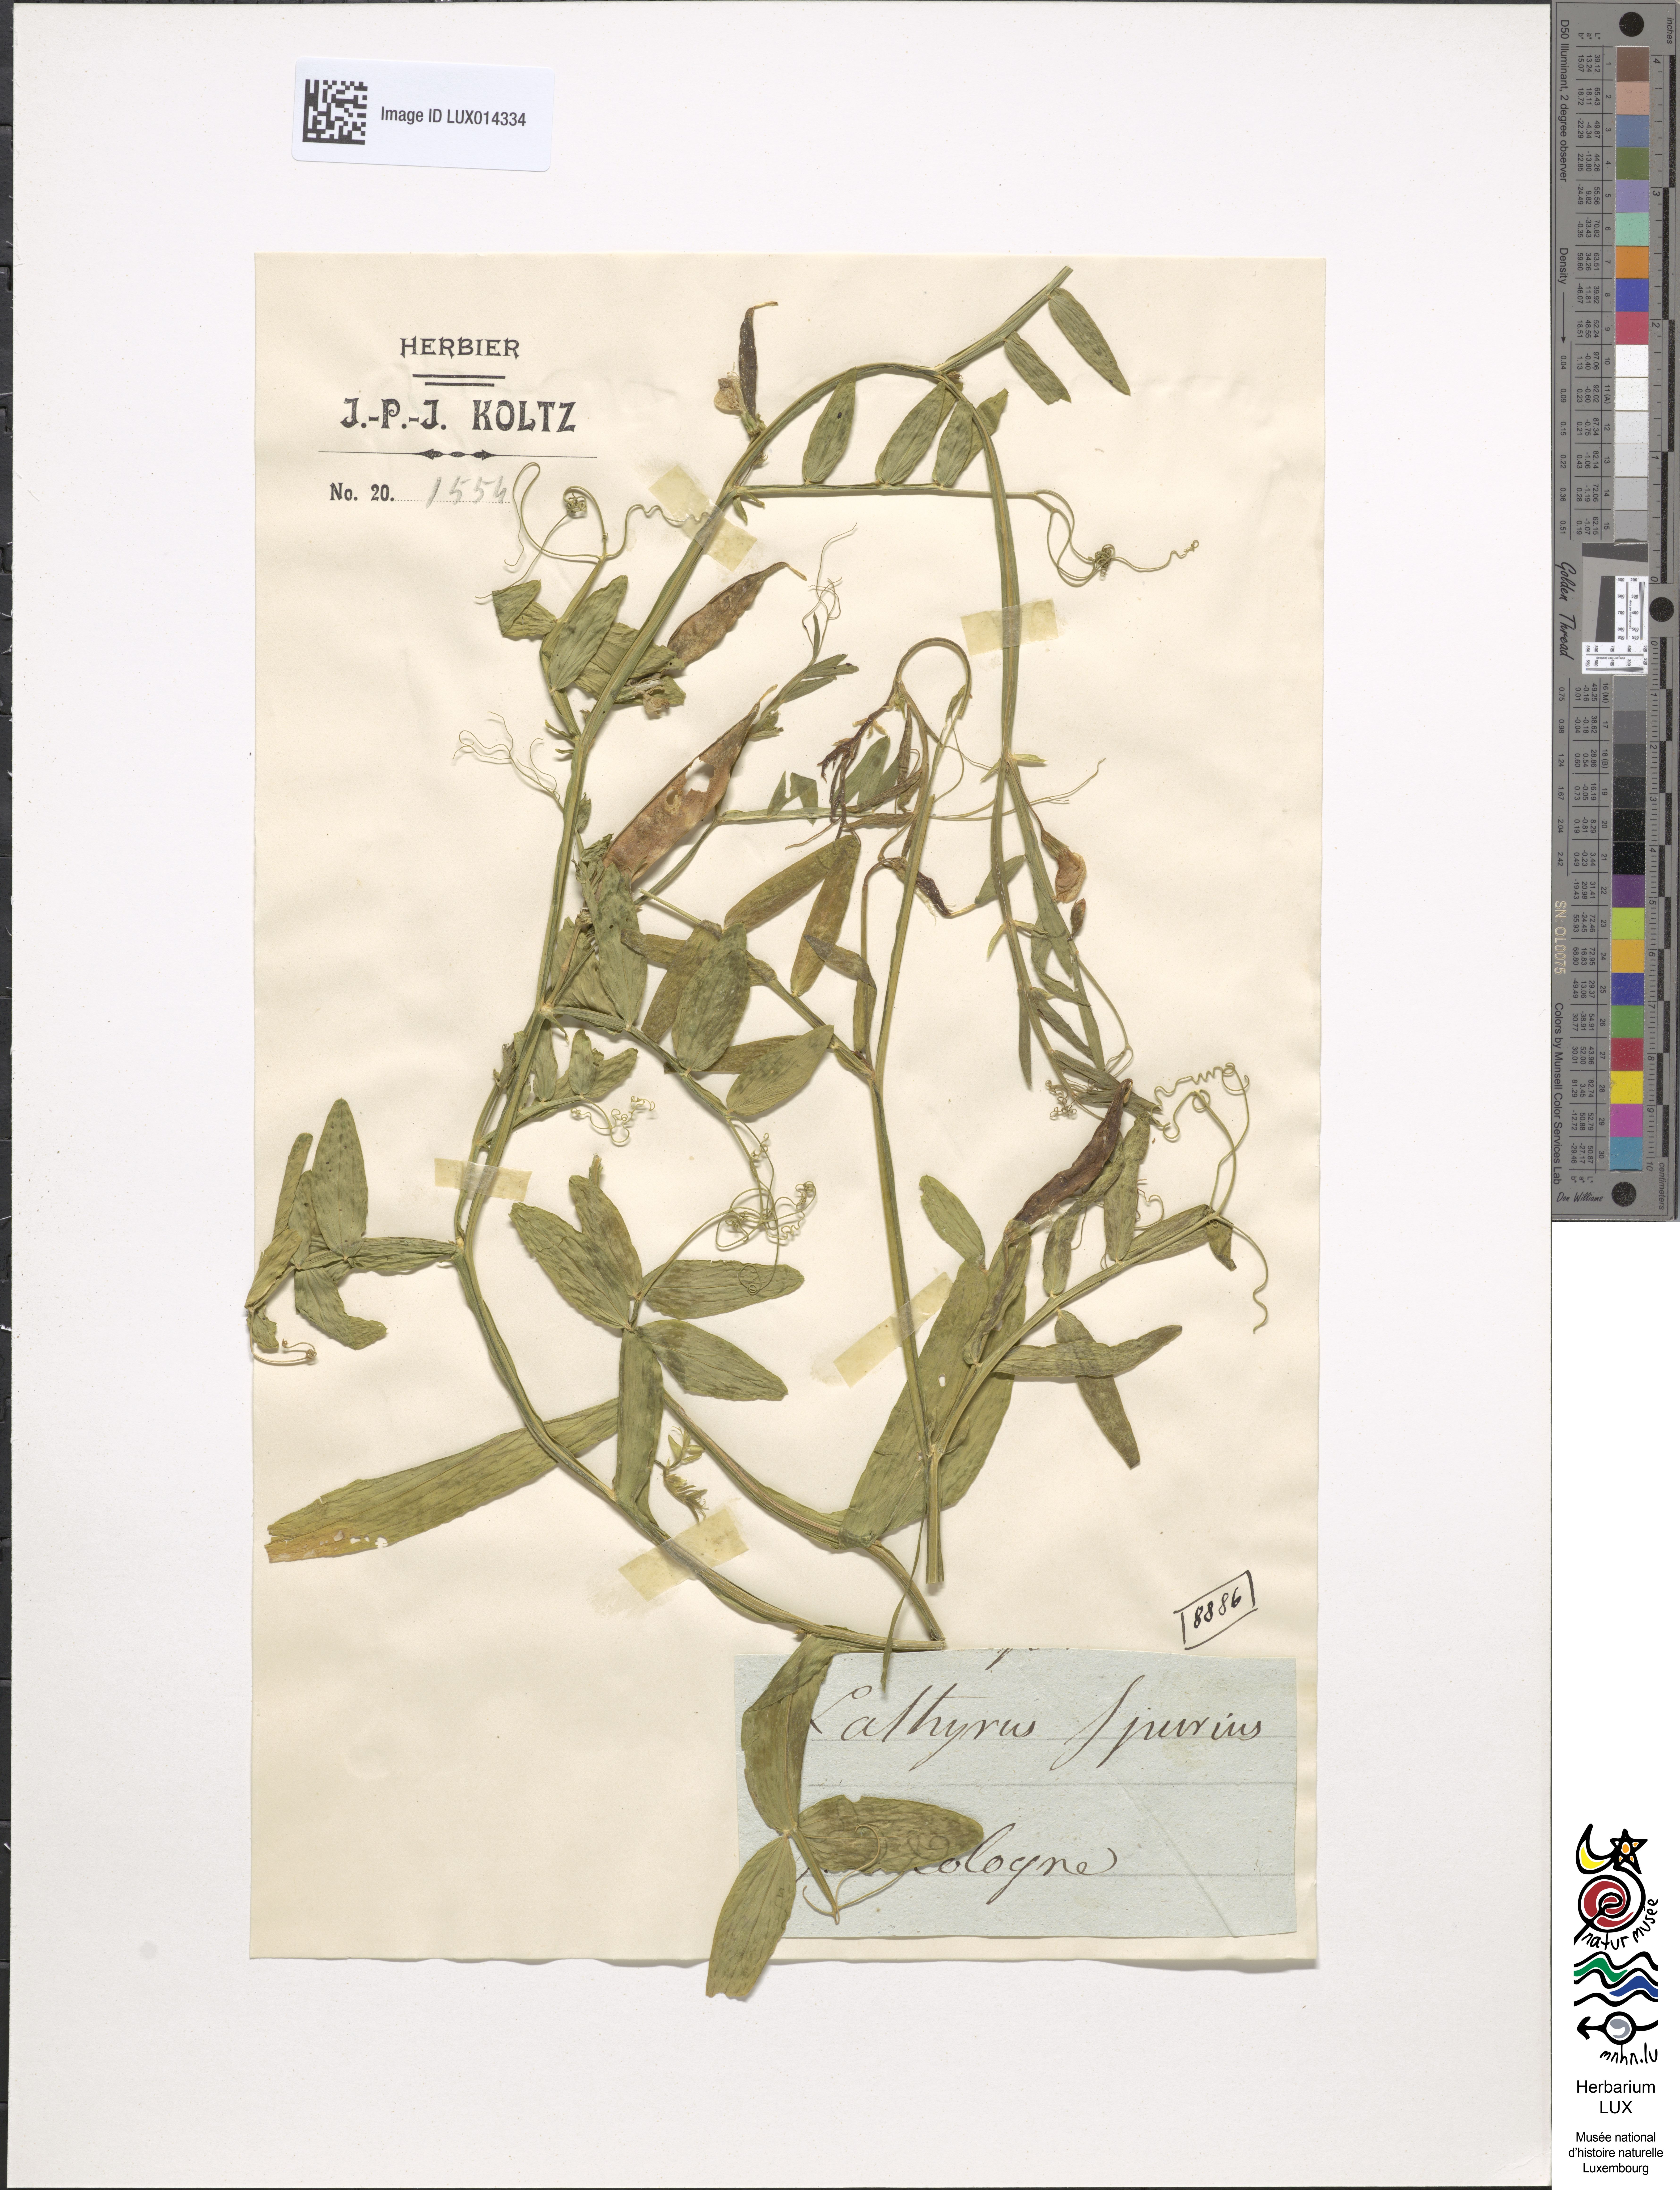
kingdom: Plantae
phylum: Tracheophyta
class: Magnoliopsida
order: Fabales
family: Fabaceae
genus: Lathyrus
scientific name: Lathyrus clymenum
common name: Spanish vetchling
